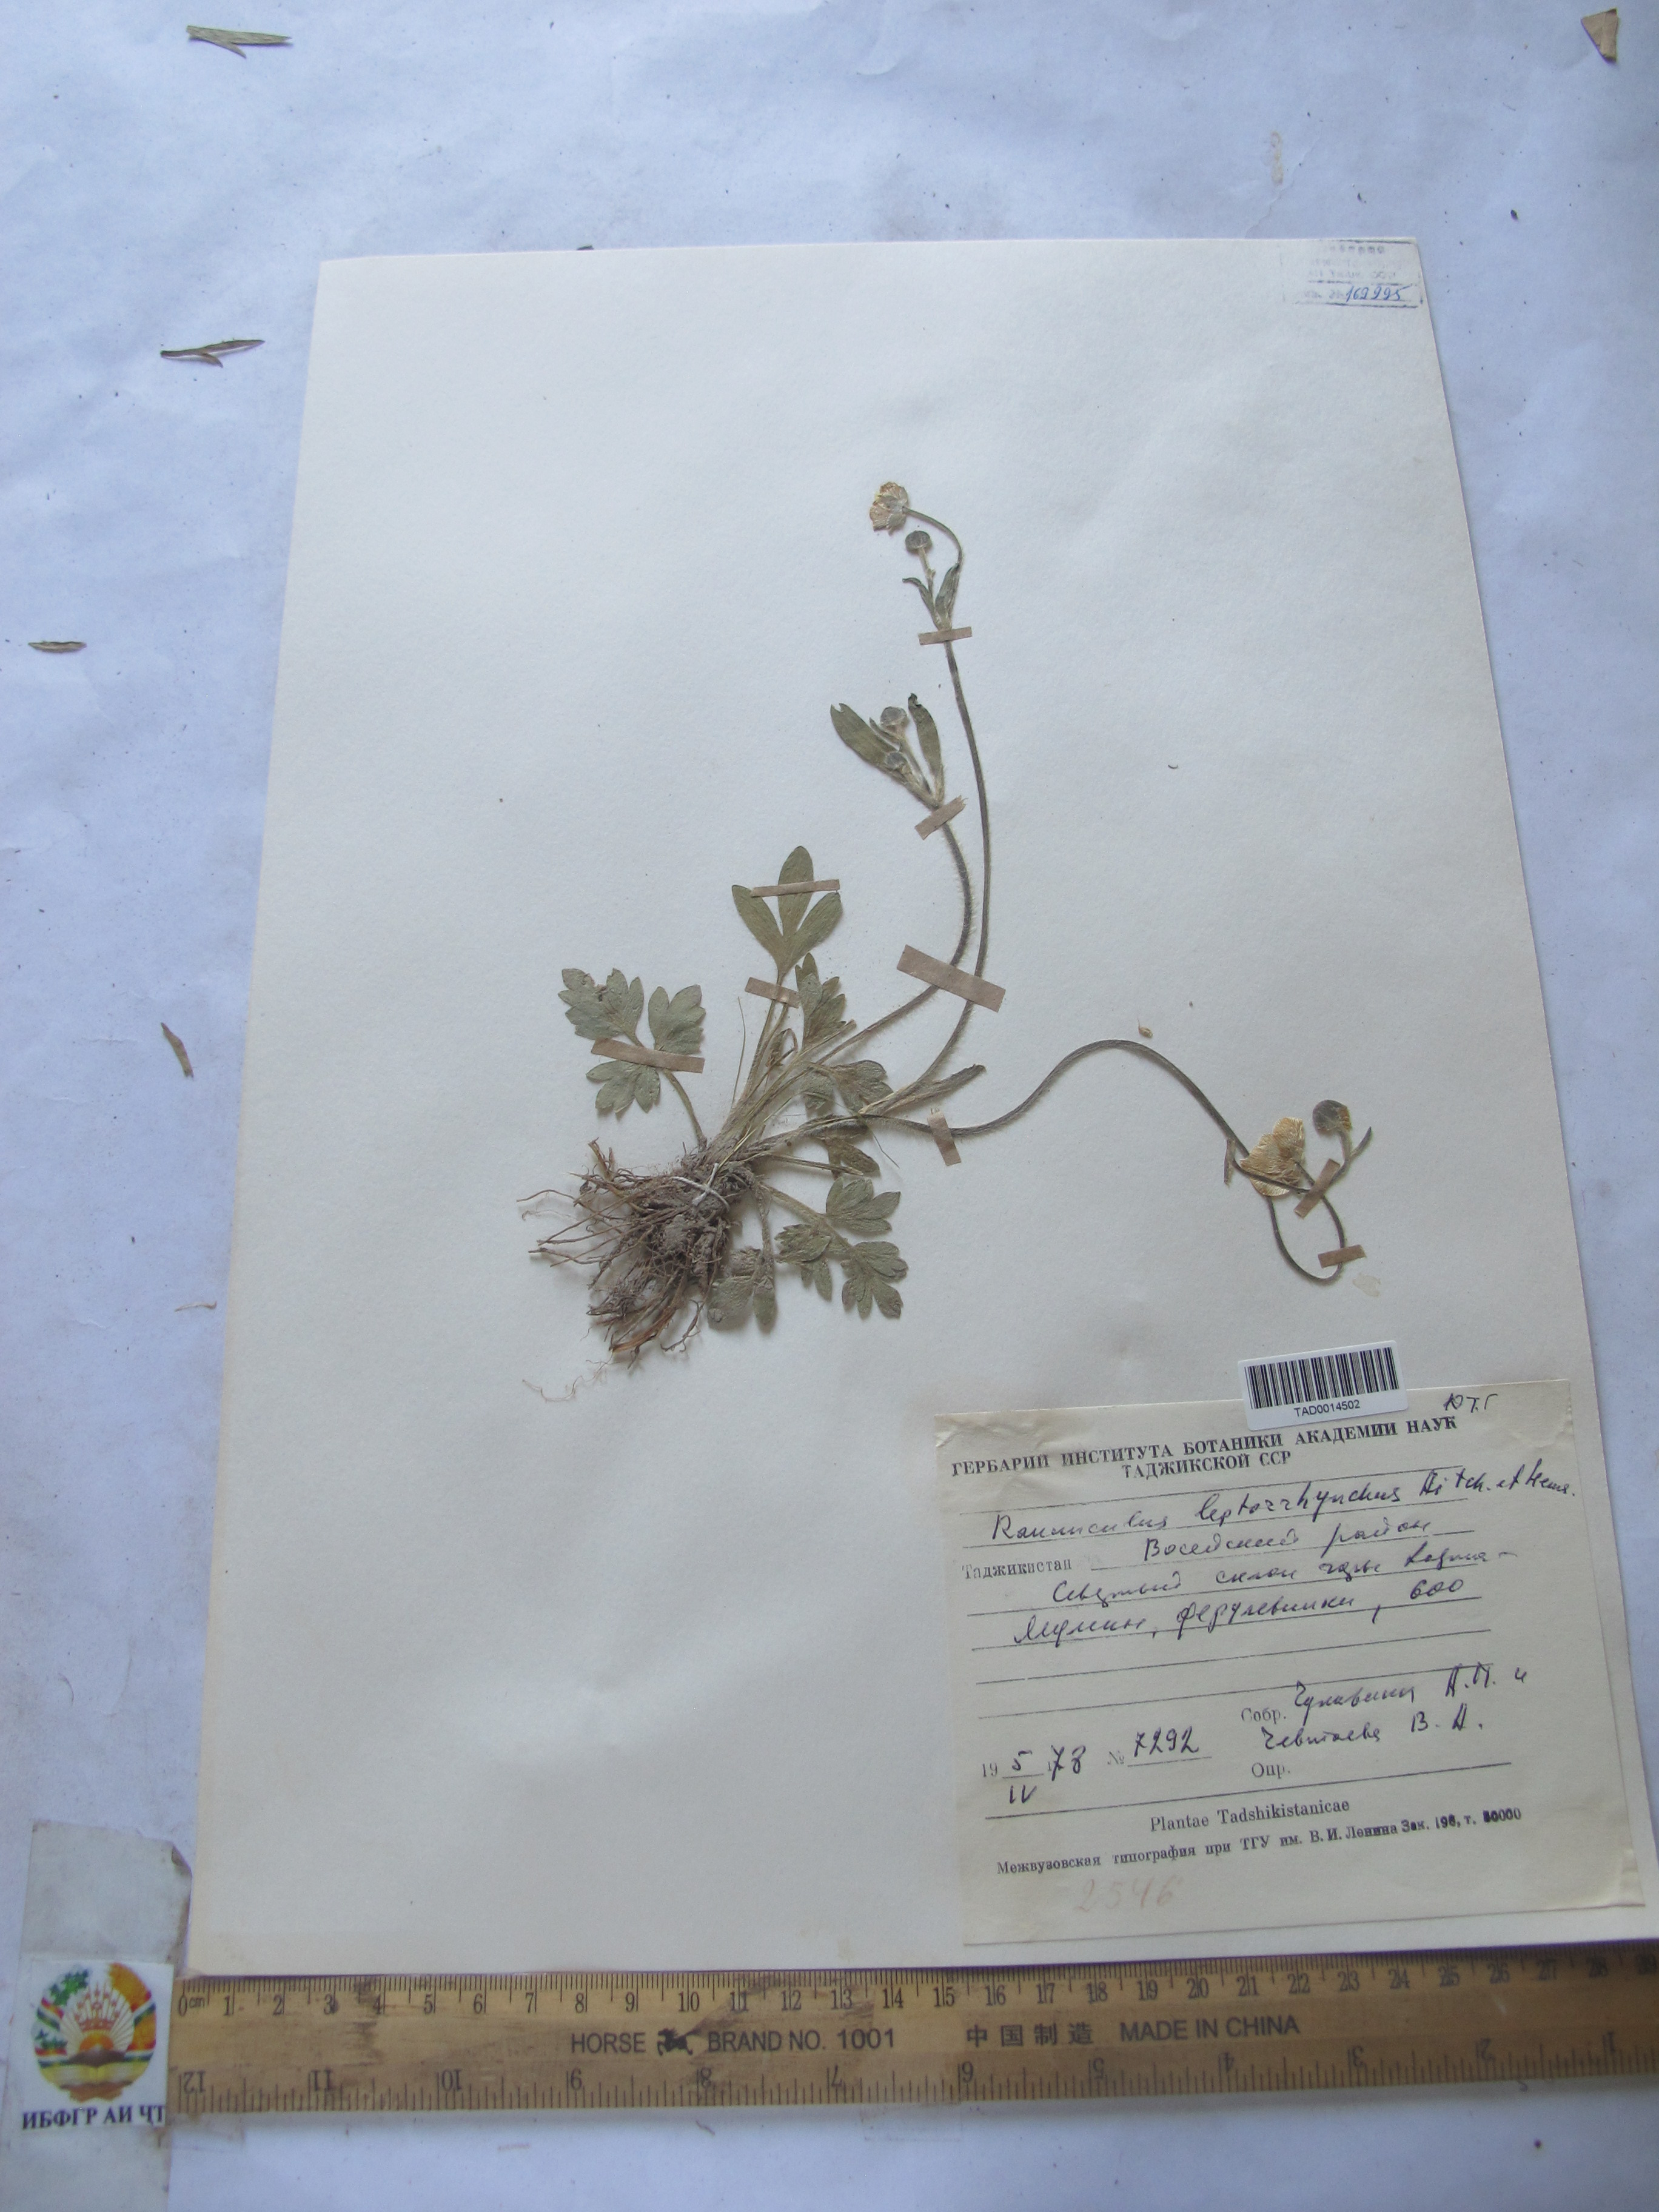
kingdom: Plantae
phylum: Tracheophyta
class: Magnoliopsida
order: Ranunculales
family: Ranunculaceae
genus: Ranunculus
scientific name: Ranunculus leptorrhynchus
